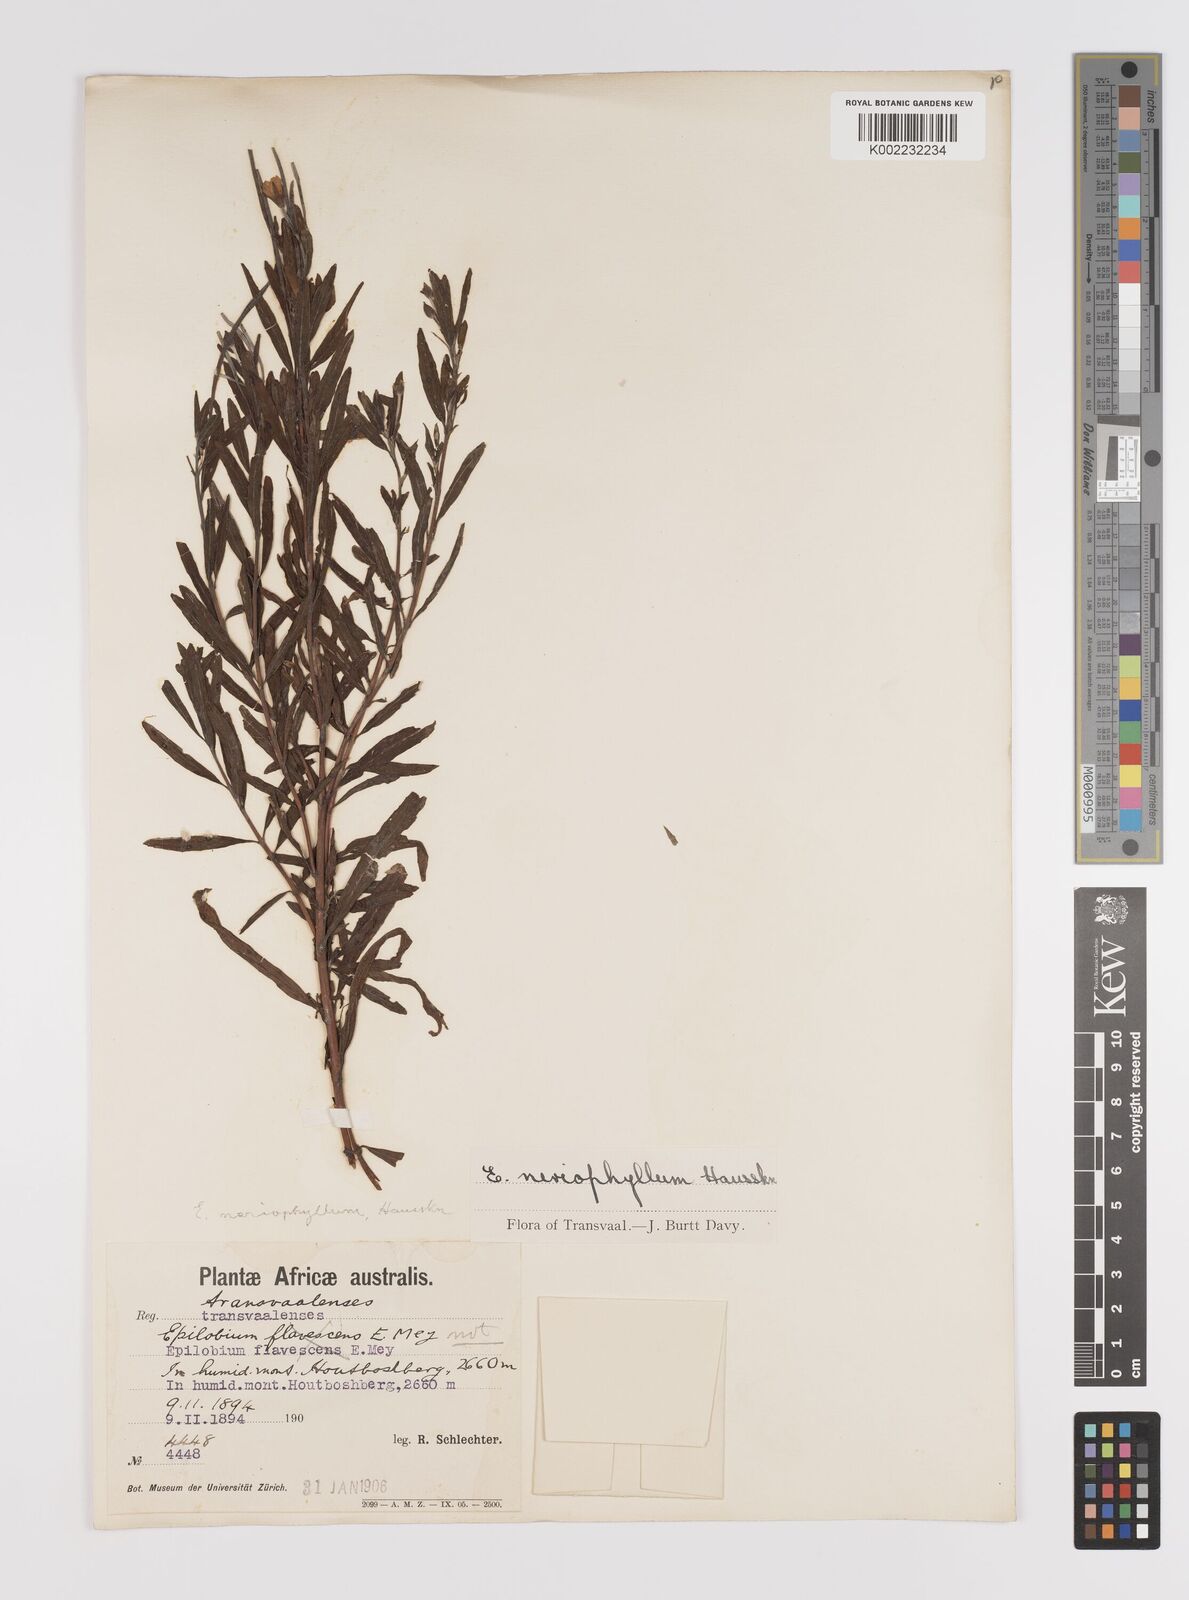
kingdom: Plantae
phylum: Tracheophyta
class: Magnoliopsida
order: Myrtales
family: Onagraceae
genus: Epilobium
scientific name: Epilobium salignum
